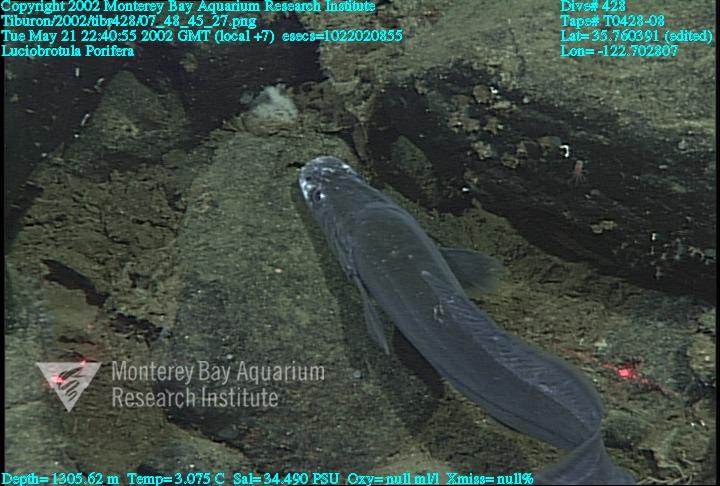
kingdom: Animalia
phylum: Porifera
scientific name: Porifera
